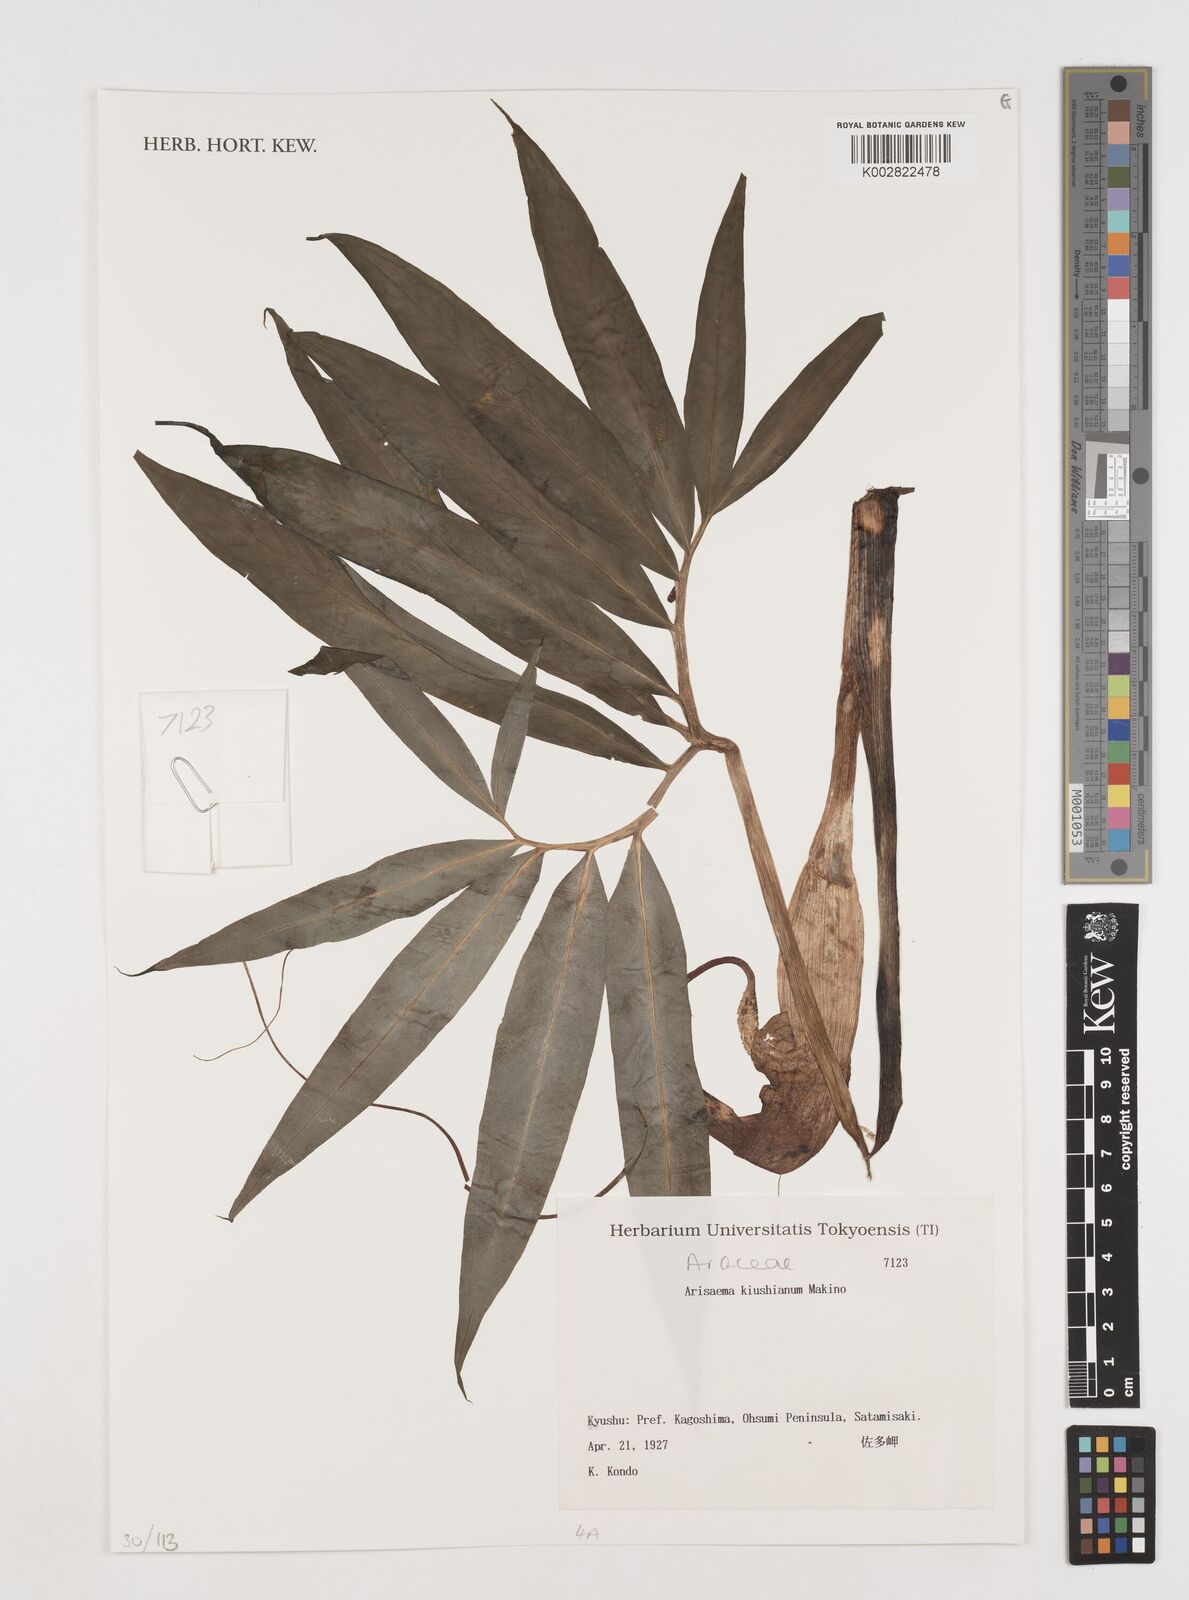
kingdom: Plantae
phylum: Tracheophyta
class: Liliopsida
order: Alismatales
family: Araceae
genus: Arisaema
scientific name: Arisaema kiushianum
